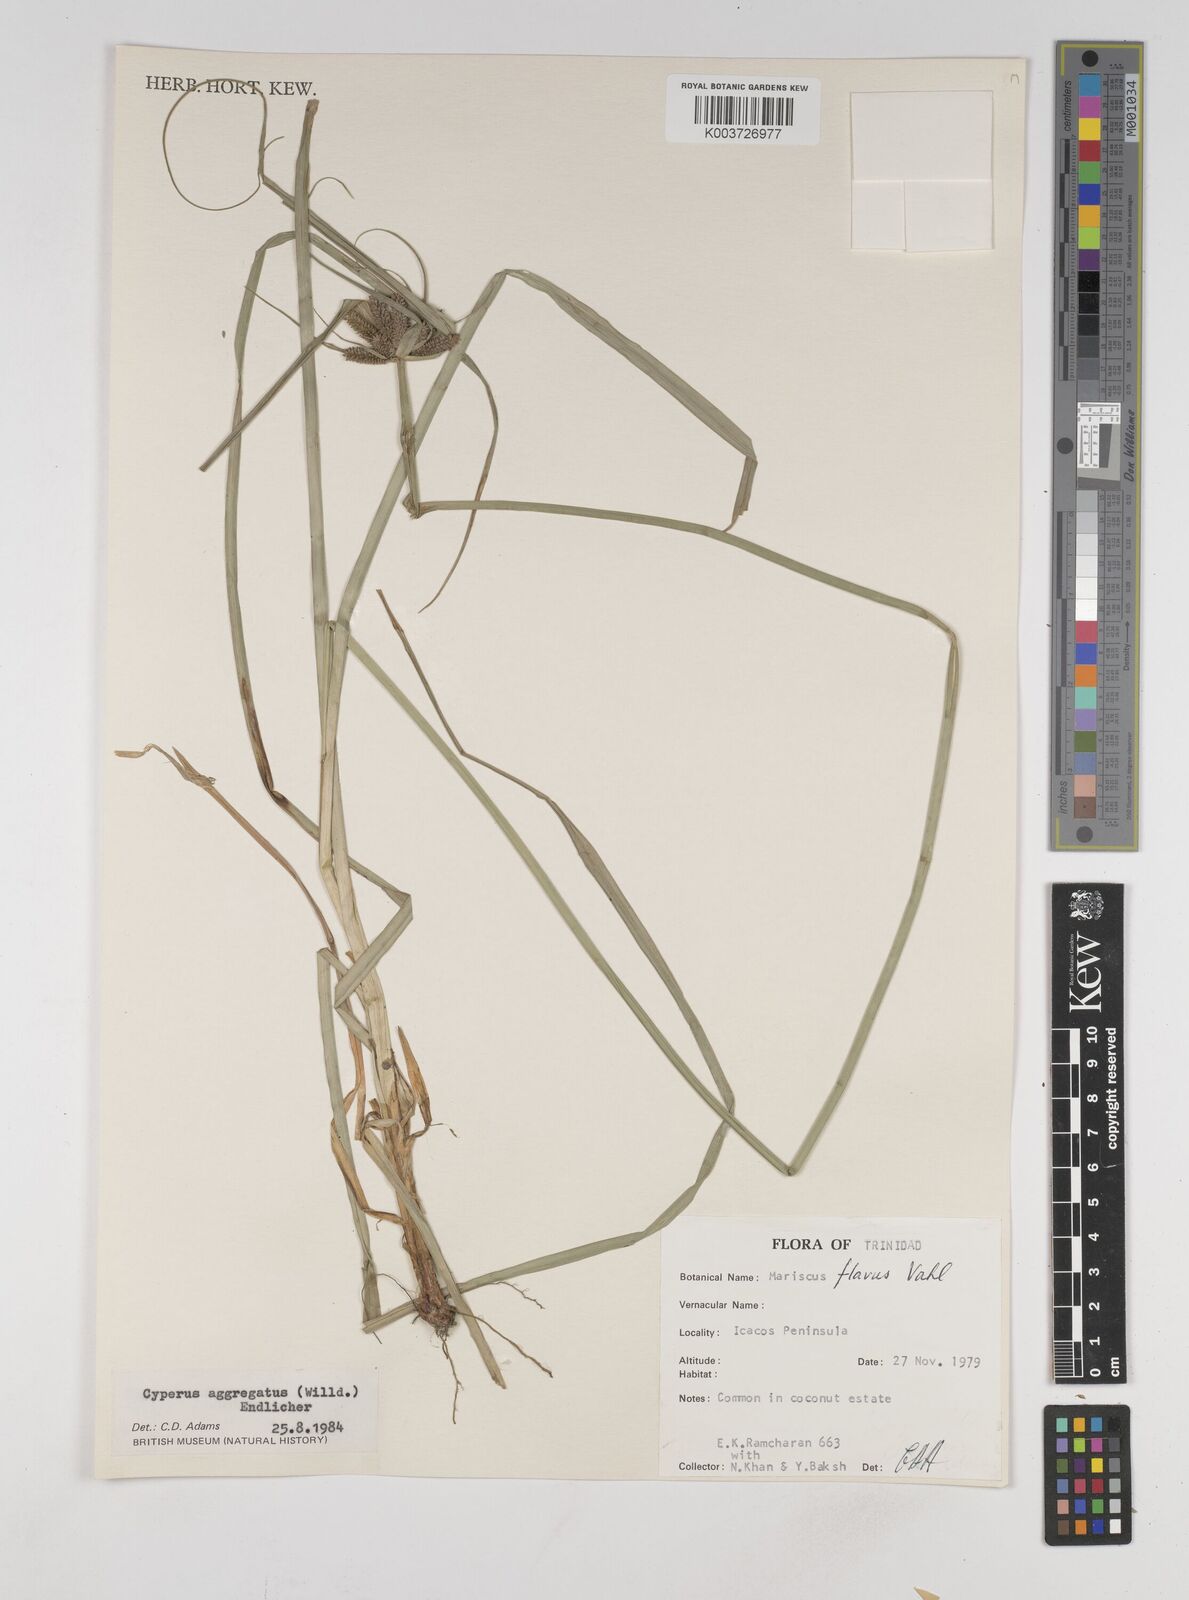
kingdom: Plantae
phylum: Tracheophyta
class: Liliopsida
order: Poales
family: Cyperaceae
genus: Cyperus
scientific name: Cyperus aggregatus
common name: Inflatedscale flatsedge
